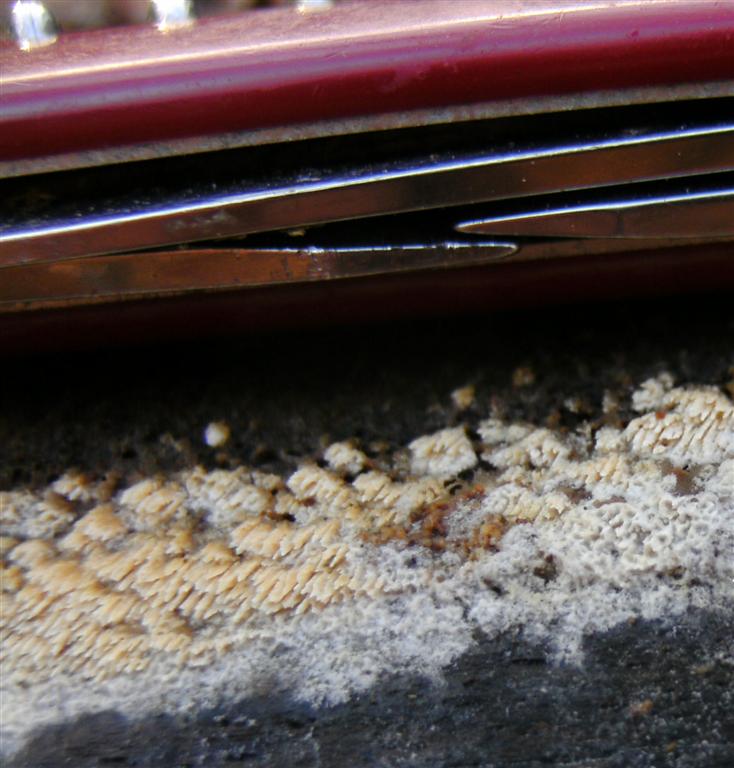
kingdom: Fungi
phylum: Basidiomycota
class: Agaricomycetes
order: Hymenochaetales
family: Schizoporaceae
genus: Schizopora
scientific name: Schizopora paradoxa
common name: hvid tandsvamp
